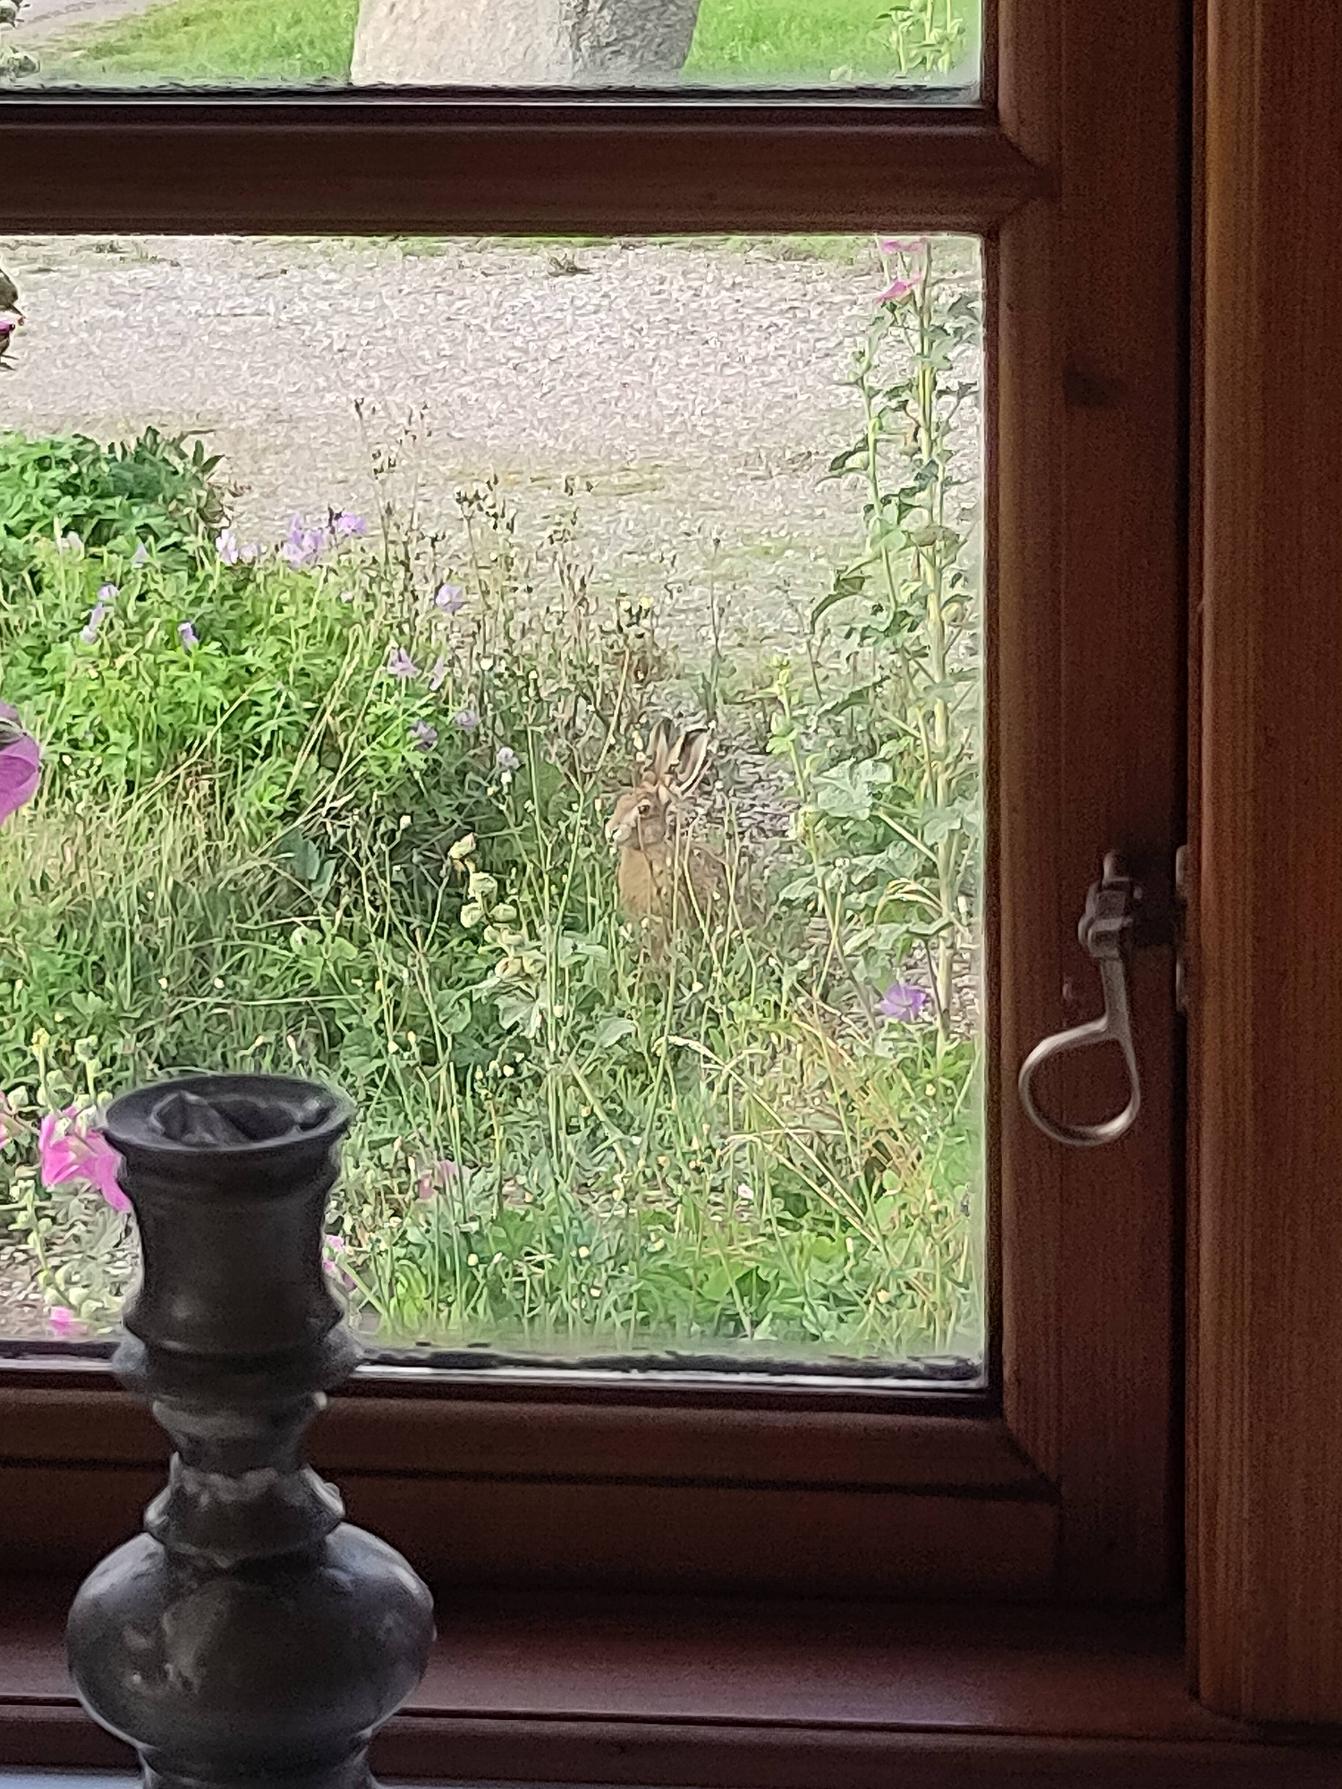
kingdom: Animalia
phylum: Chordata
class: Mammalia
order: Lagomorpha
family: Leporidae
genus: Lepus
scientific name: Lepus europaeus
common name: Hare
